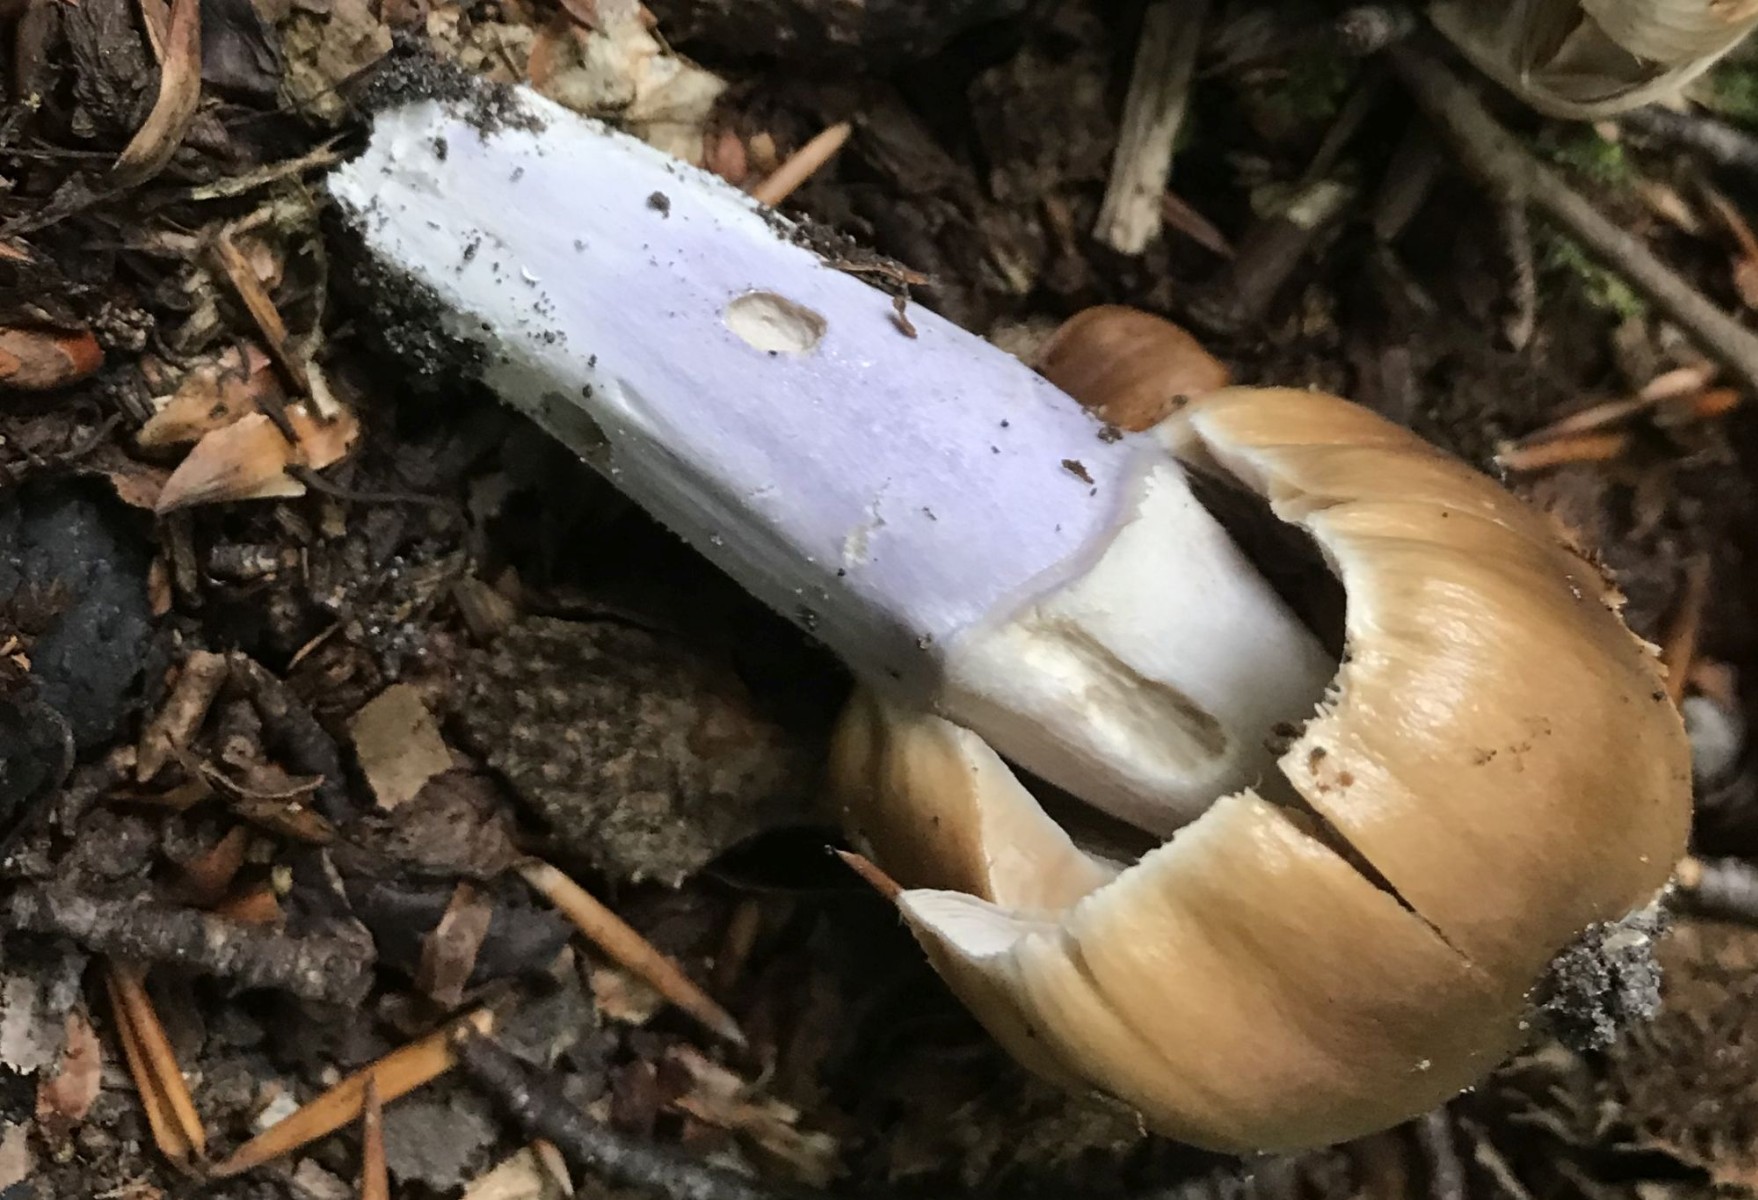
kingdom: Fungi
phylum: Basidiomycota
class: Agaricomycetes
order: Agaricales
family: Cortinariaceae
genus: Cortinarius
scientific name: Cortinarius elatior
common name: høj slørhat
